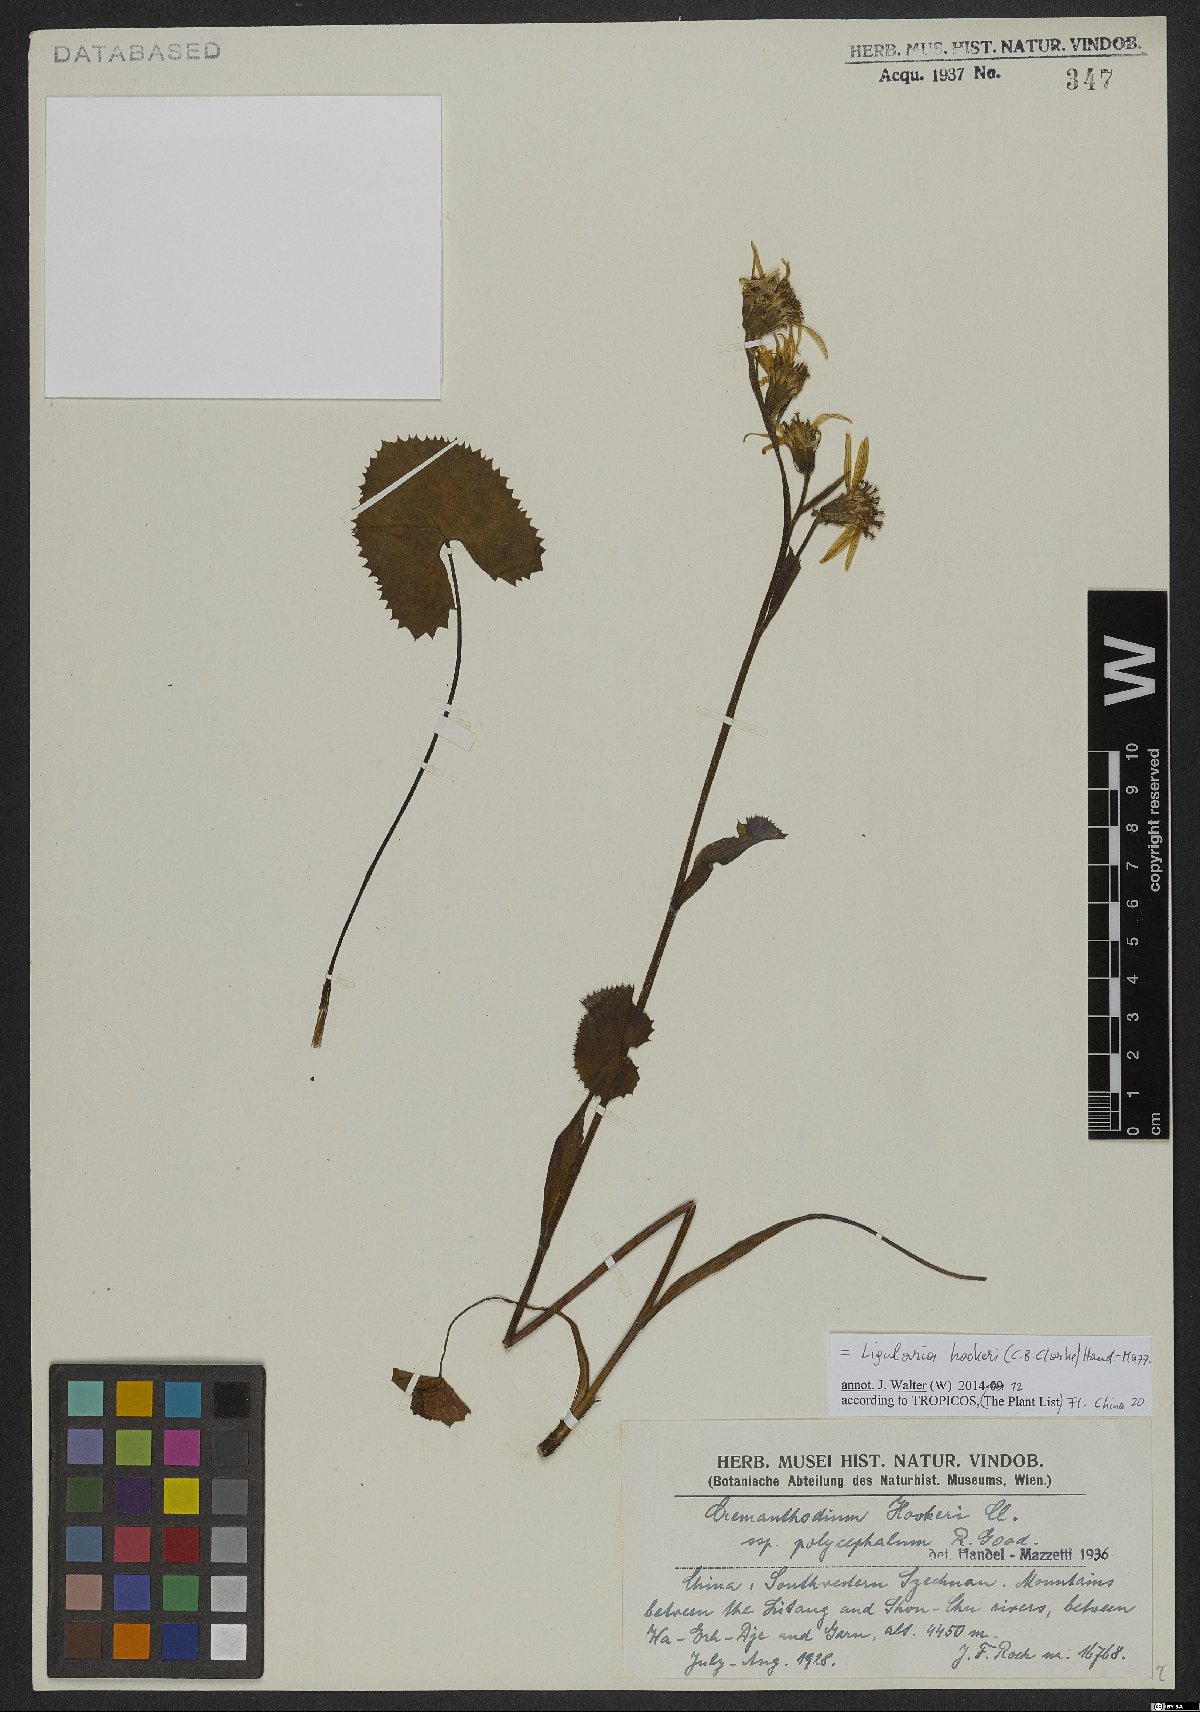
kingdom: Plantae
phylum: Tracheophyta
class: Magnoliopsida
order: Asterales
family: Asteraceae
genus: Ligularia
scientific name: Ligularia hookeri
